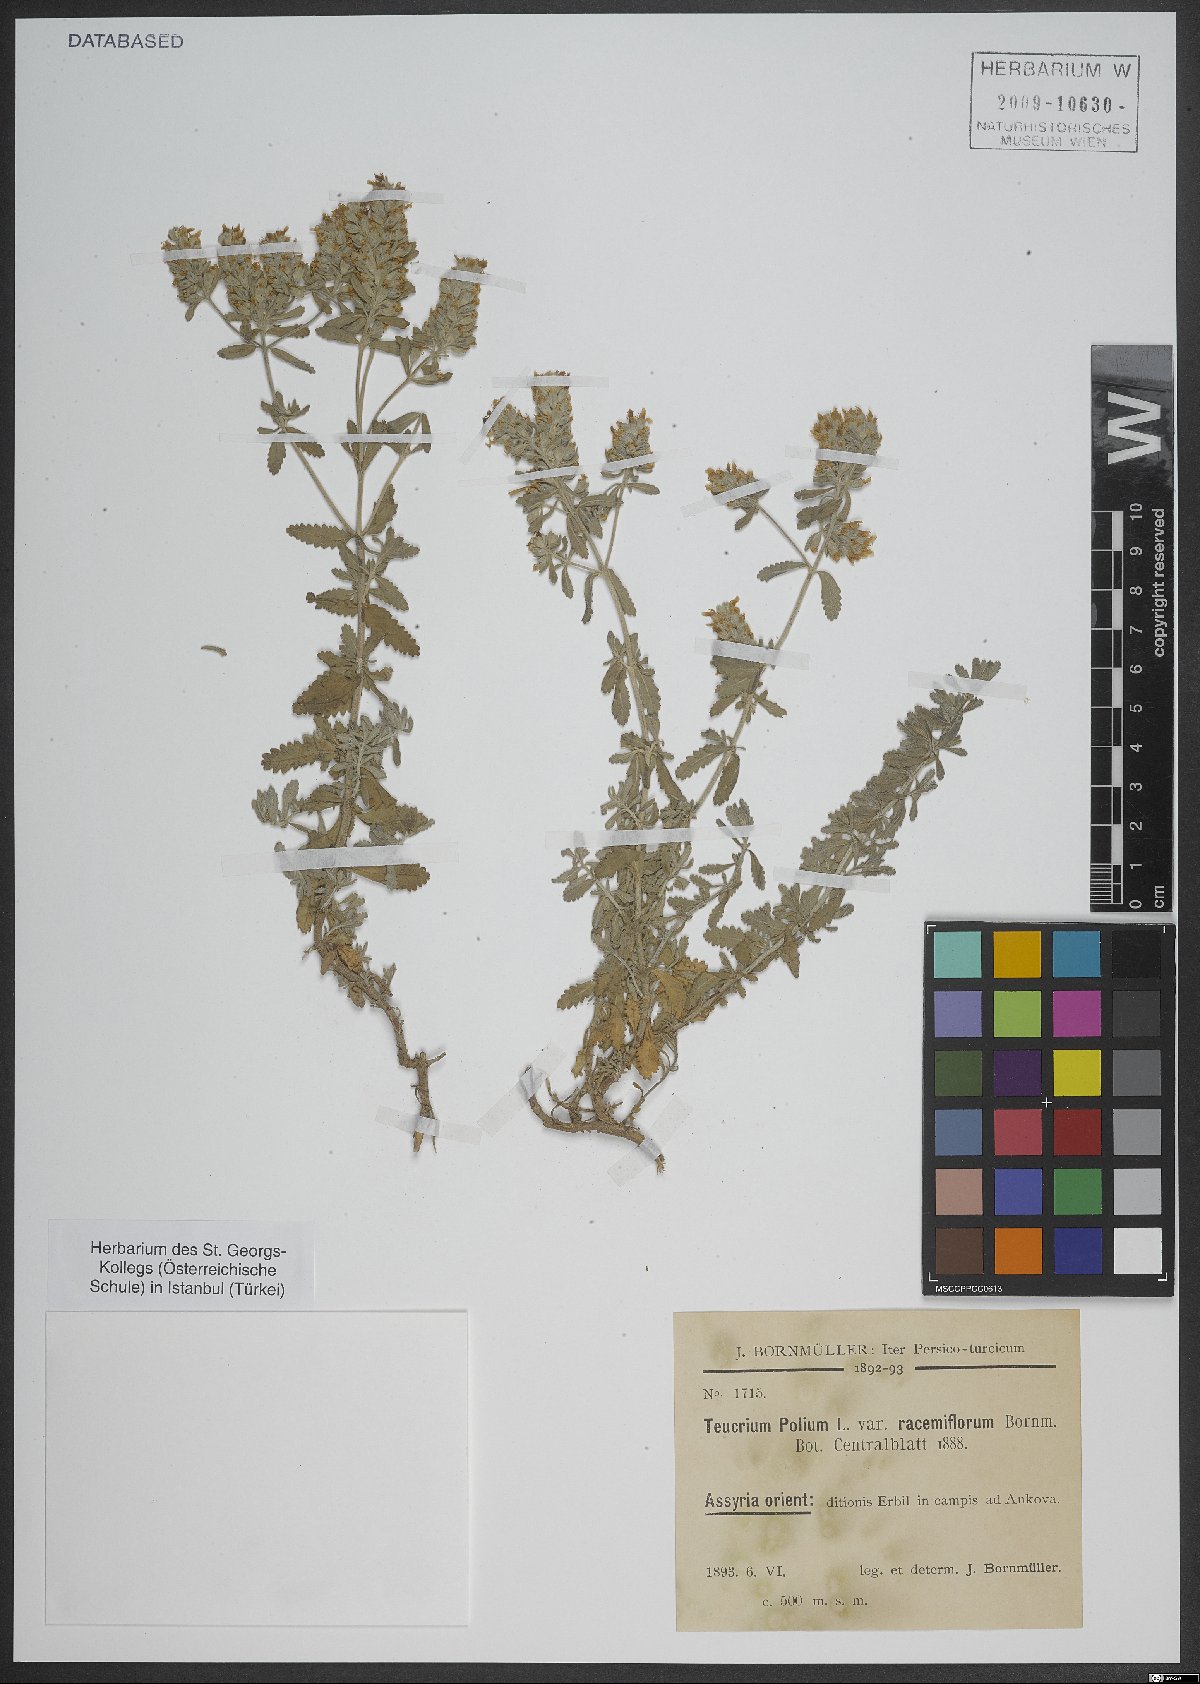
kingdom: Plantae
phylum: Tracheophyta
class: Magnoliopsida
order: Lamiales
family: Lamiaceae
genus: Teucrium
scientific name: Teucrium polium
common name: Poley
